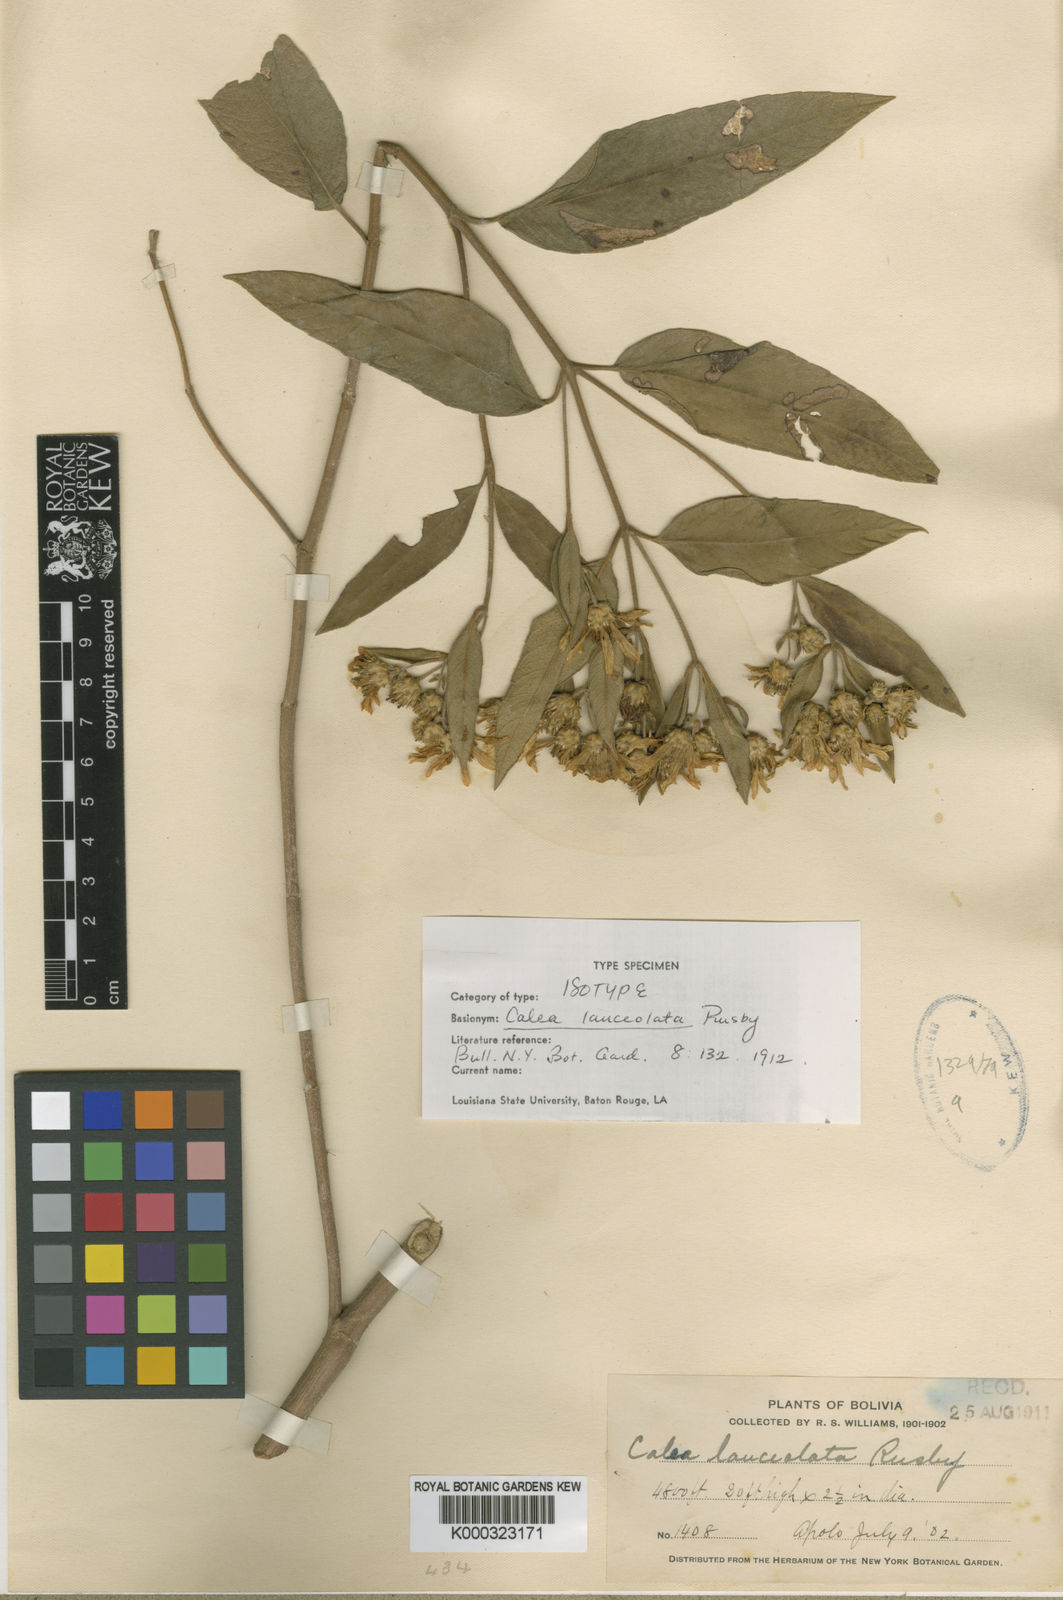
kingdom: Plantae
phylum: Tracheophyta
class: Magnoliopsida
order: Asterales
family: Asteraceae
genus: Oyedaea
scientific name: Oyedaea lanceolata
